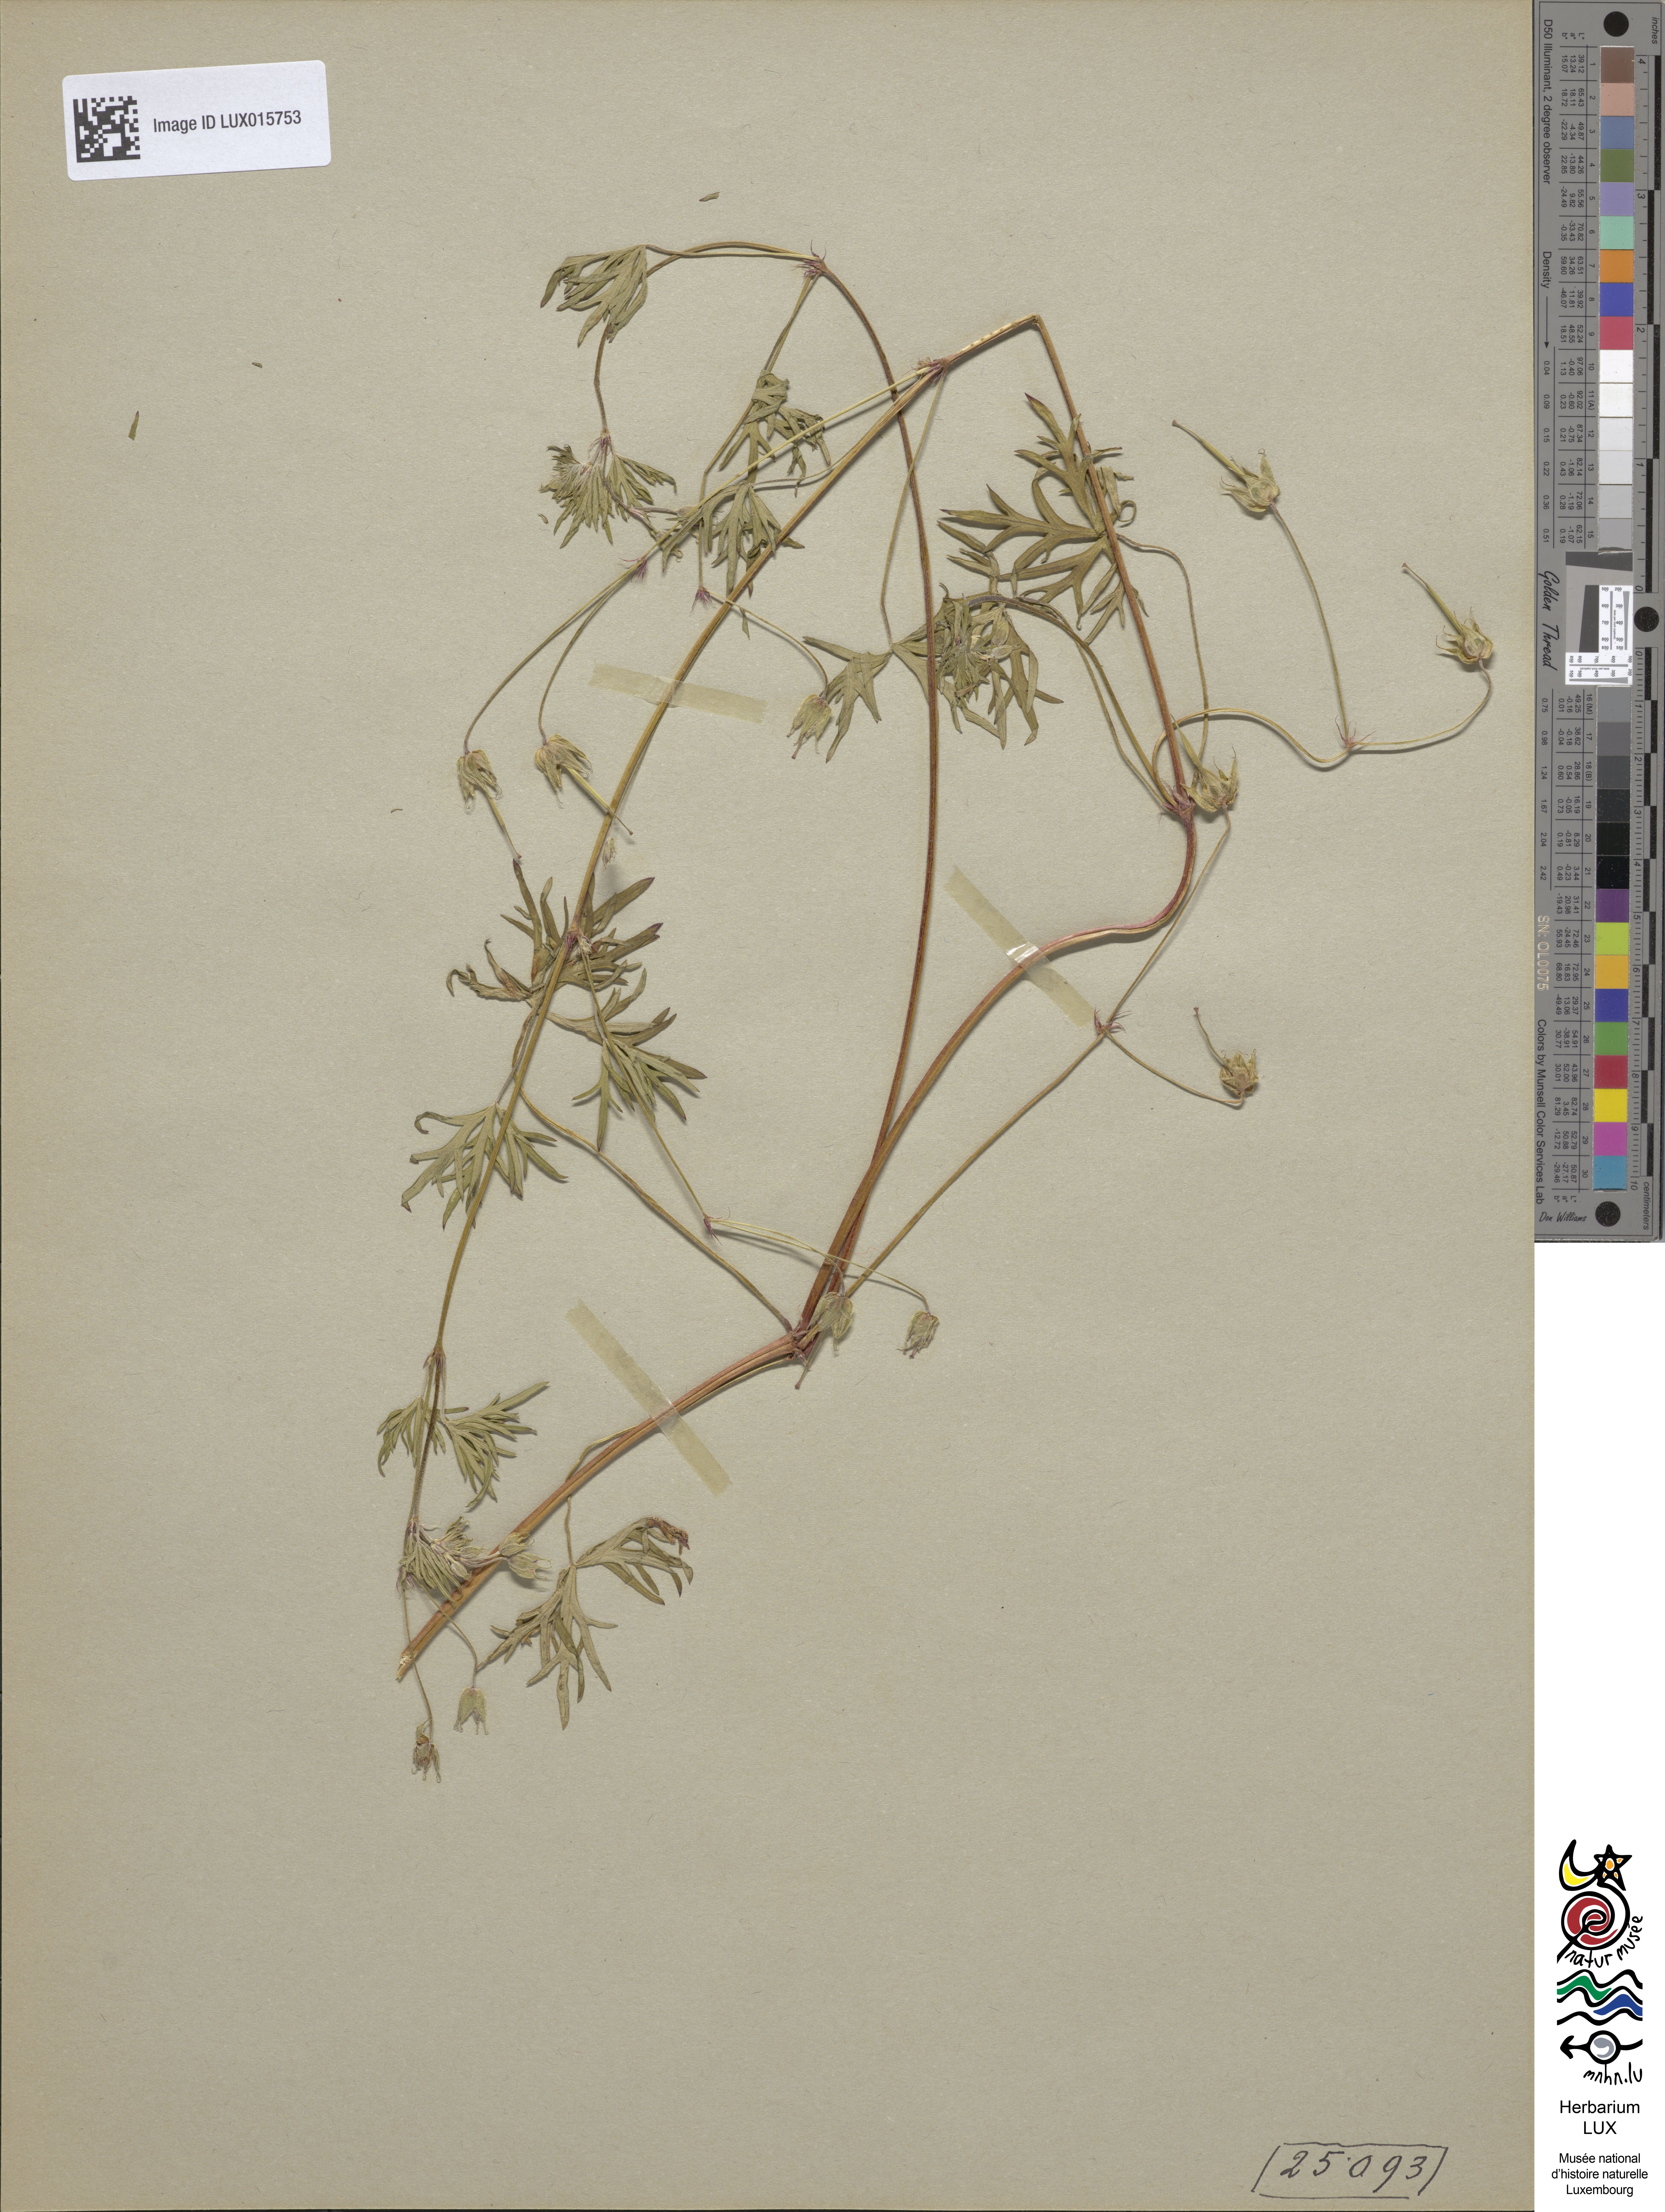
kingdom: Plantae
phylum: Tracheophyta
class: Magnoliopsida
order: Geraniales
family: Geraniaceae
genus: Geranium
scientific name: Geranium columbinum
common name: Long-stalked crane's-bill
